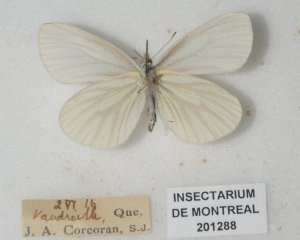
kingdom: Animalia
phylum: Arthropoda
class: Insecta
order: Lepidoptera
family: Pieridae
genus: Pieris
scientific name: Pieris oleracea
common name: Mustard White
